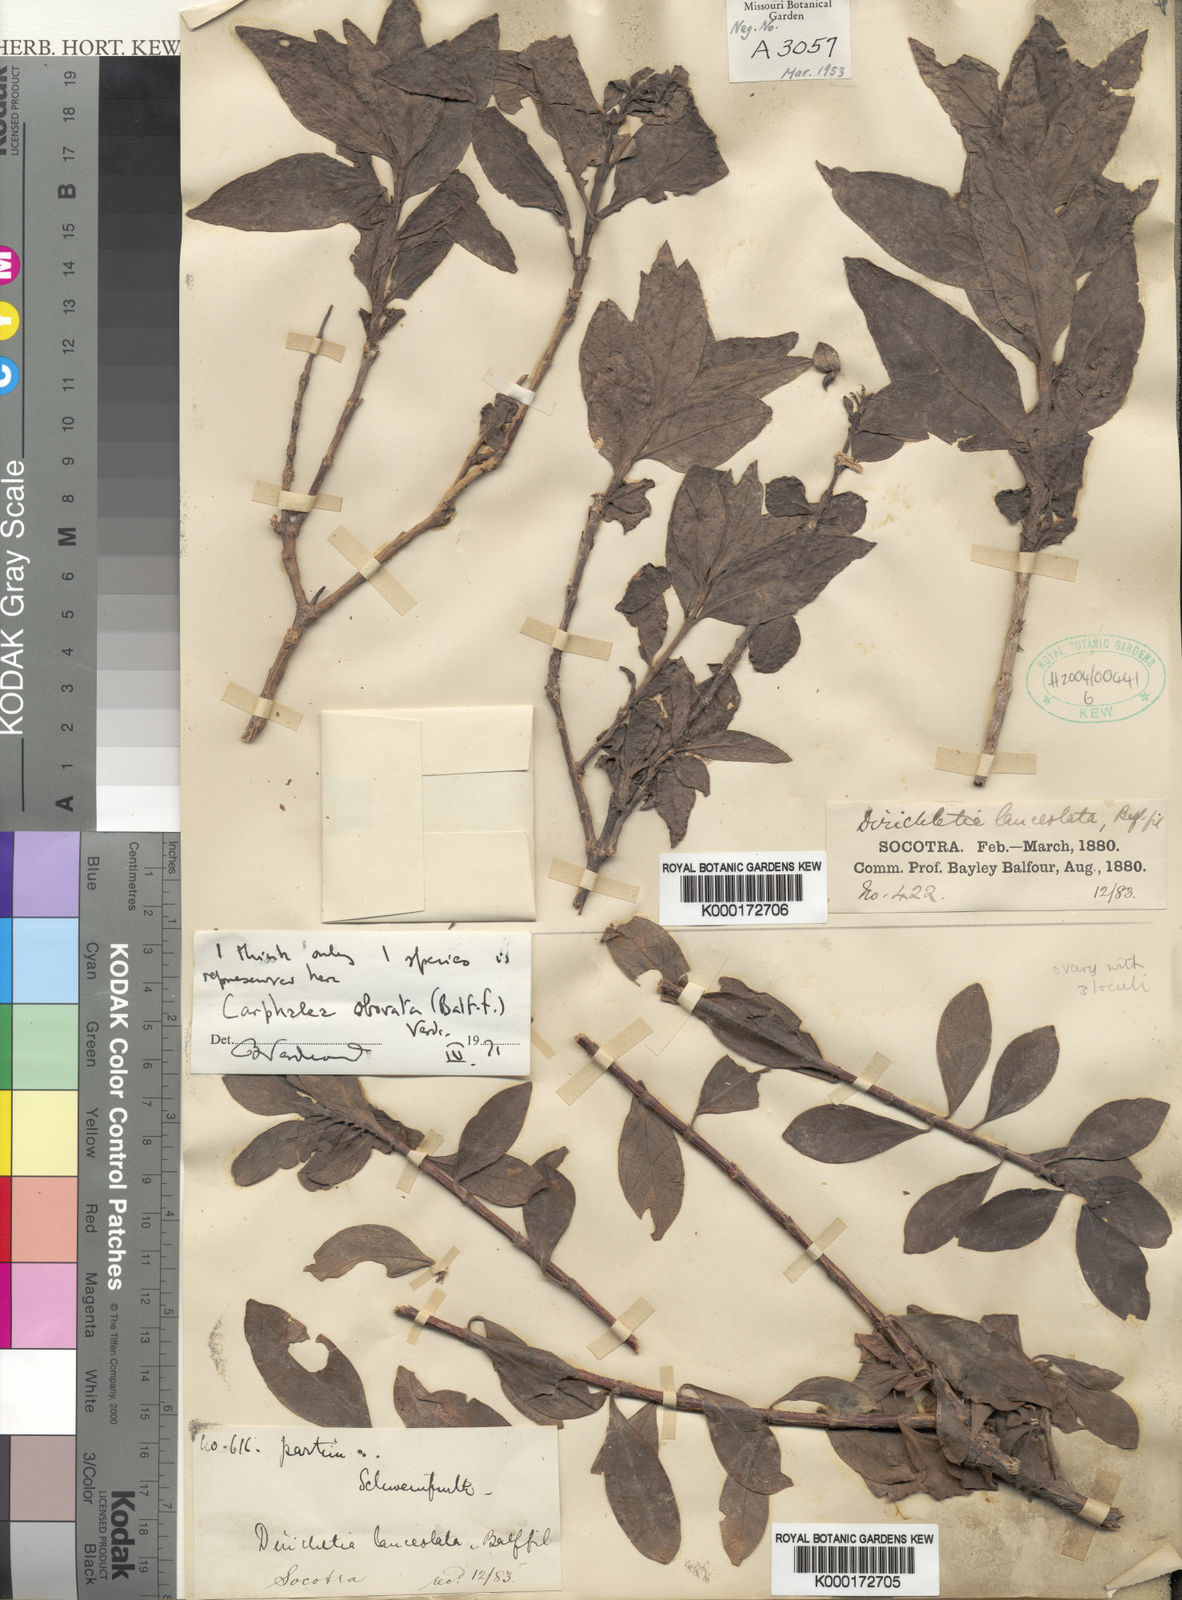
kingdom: Plantae
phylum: Tracheophyta
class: Magnoliopsida
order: Gentianales
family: Rubiaceae
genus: Dirichletia
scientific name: Dirichletia obovata
